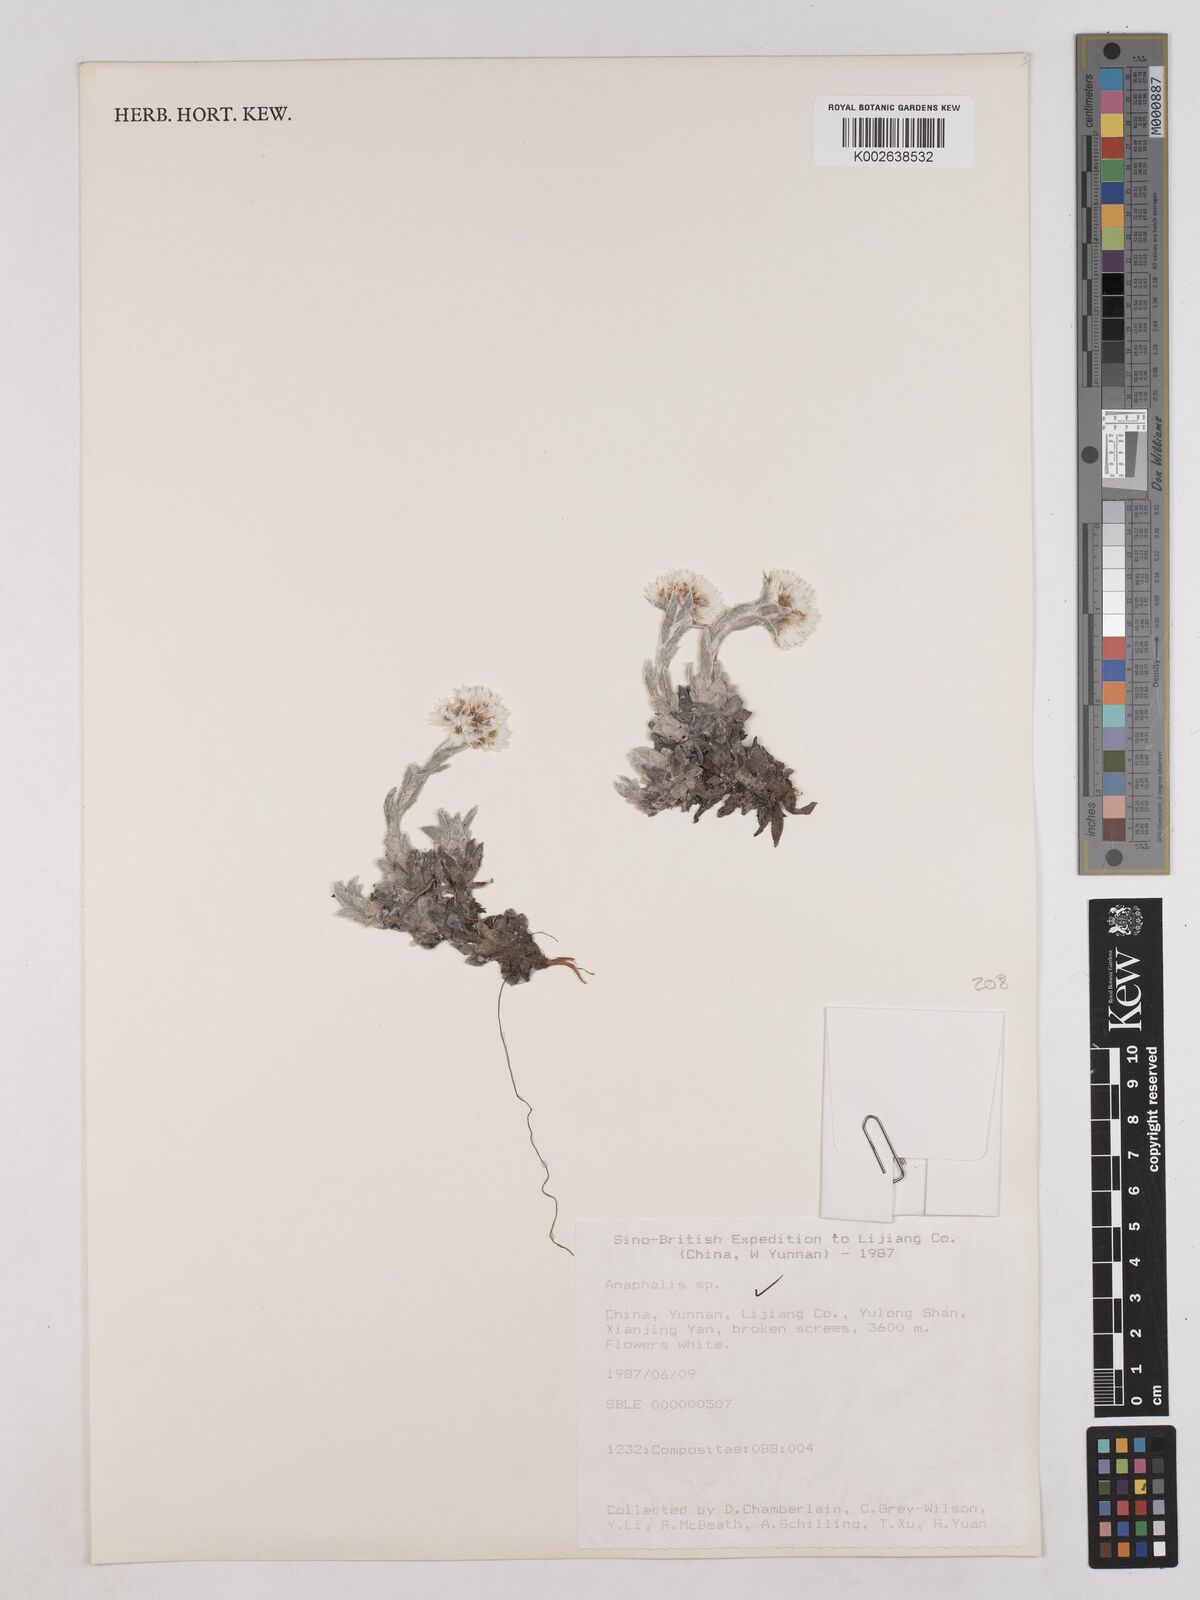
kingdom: Plantae
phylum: Tracheophyta
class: Magnoliopsida
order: Asterales
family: Asteraceae
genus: Anaphalis
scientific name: Anaphalis
